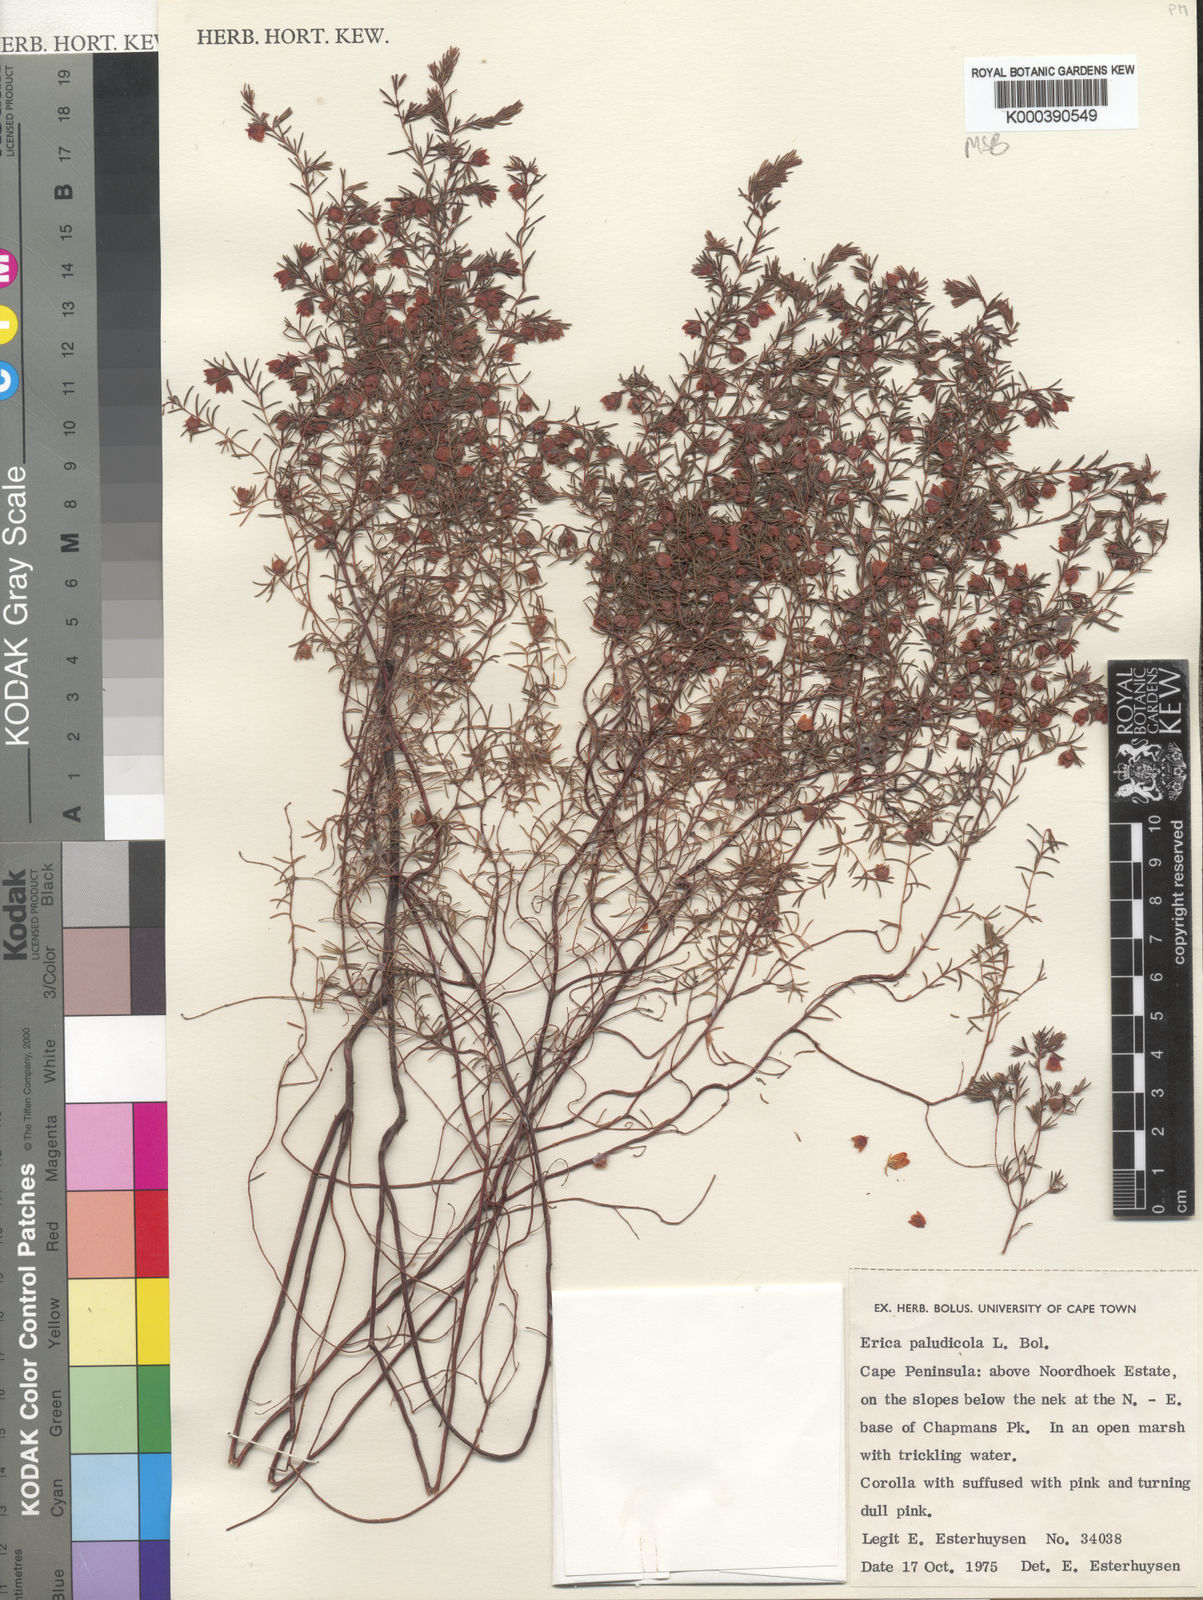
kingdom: Plantae
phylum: Tracheophyta
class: Magnoliopsida
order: Ericales
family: Ericaceae
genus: Erica
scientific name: Erica paludicola
